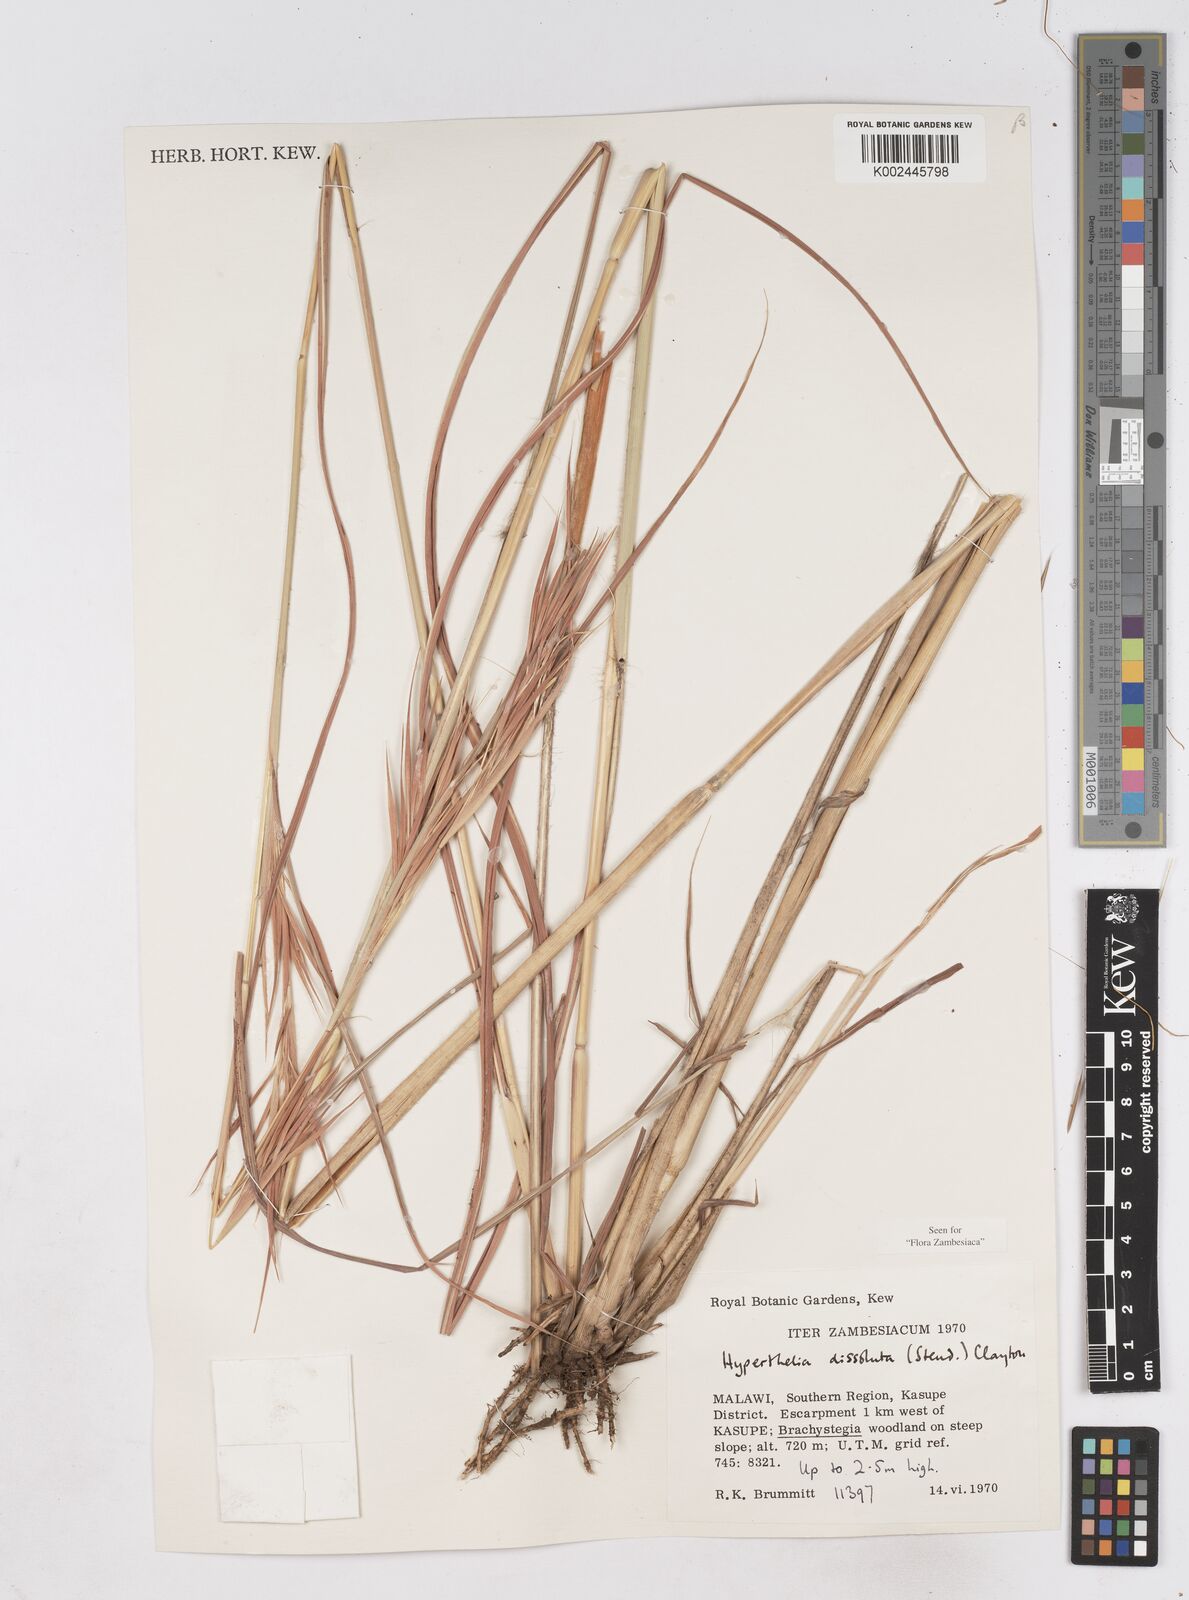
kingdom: Plantae
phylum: Tracheophyta
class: Liliopsida
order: Poales
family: Poaceae
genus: Hyperthelia
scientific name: Hyperthelia dissoluta
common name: Yellow thatching grass
